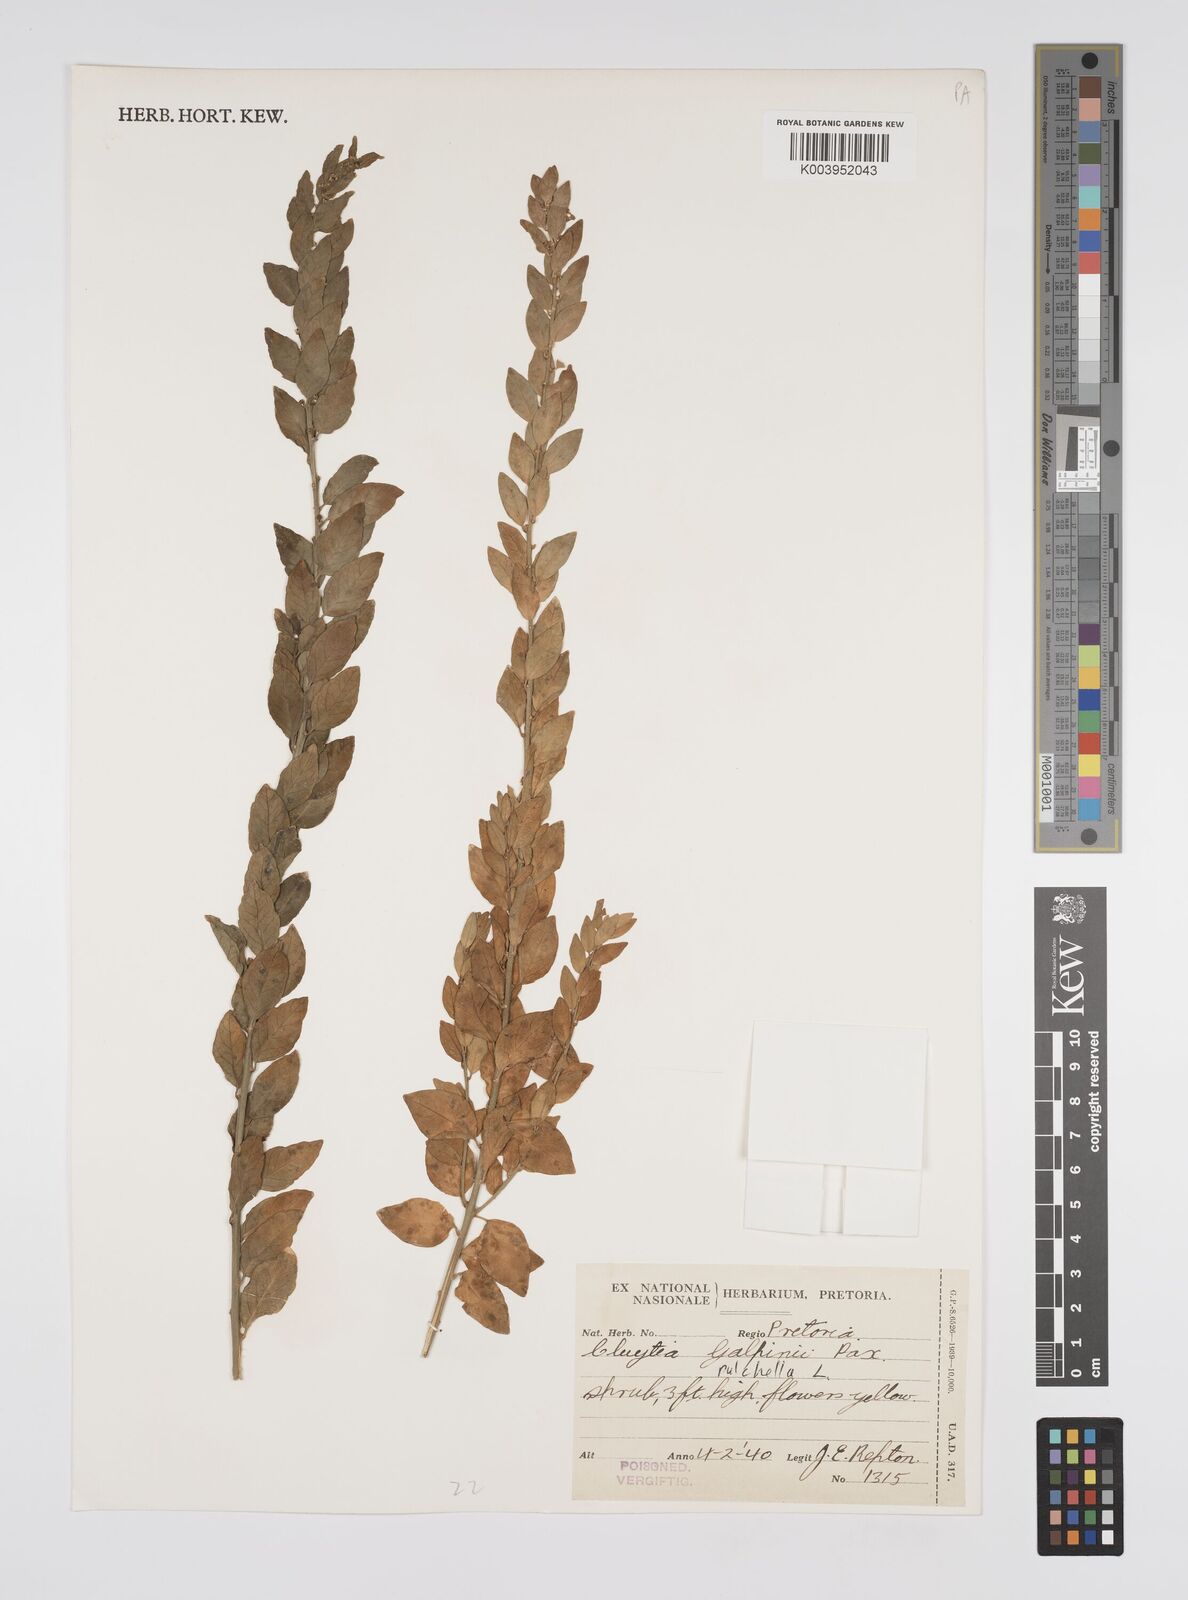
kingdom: Plantae
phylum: Tracheophyta
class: Magnoliopsida
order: Malpighiales
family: Peraceae
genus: Clutia
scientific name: Clutia pulchella
